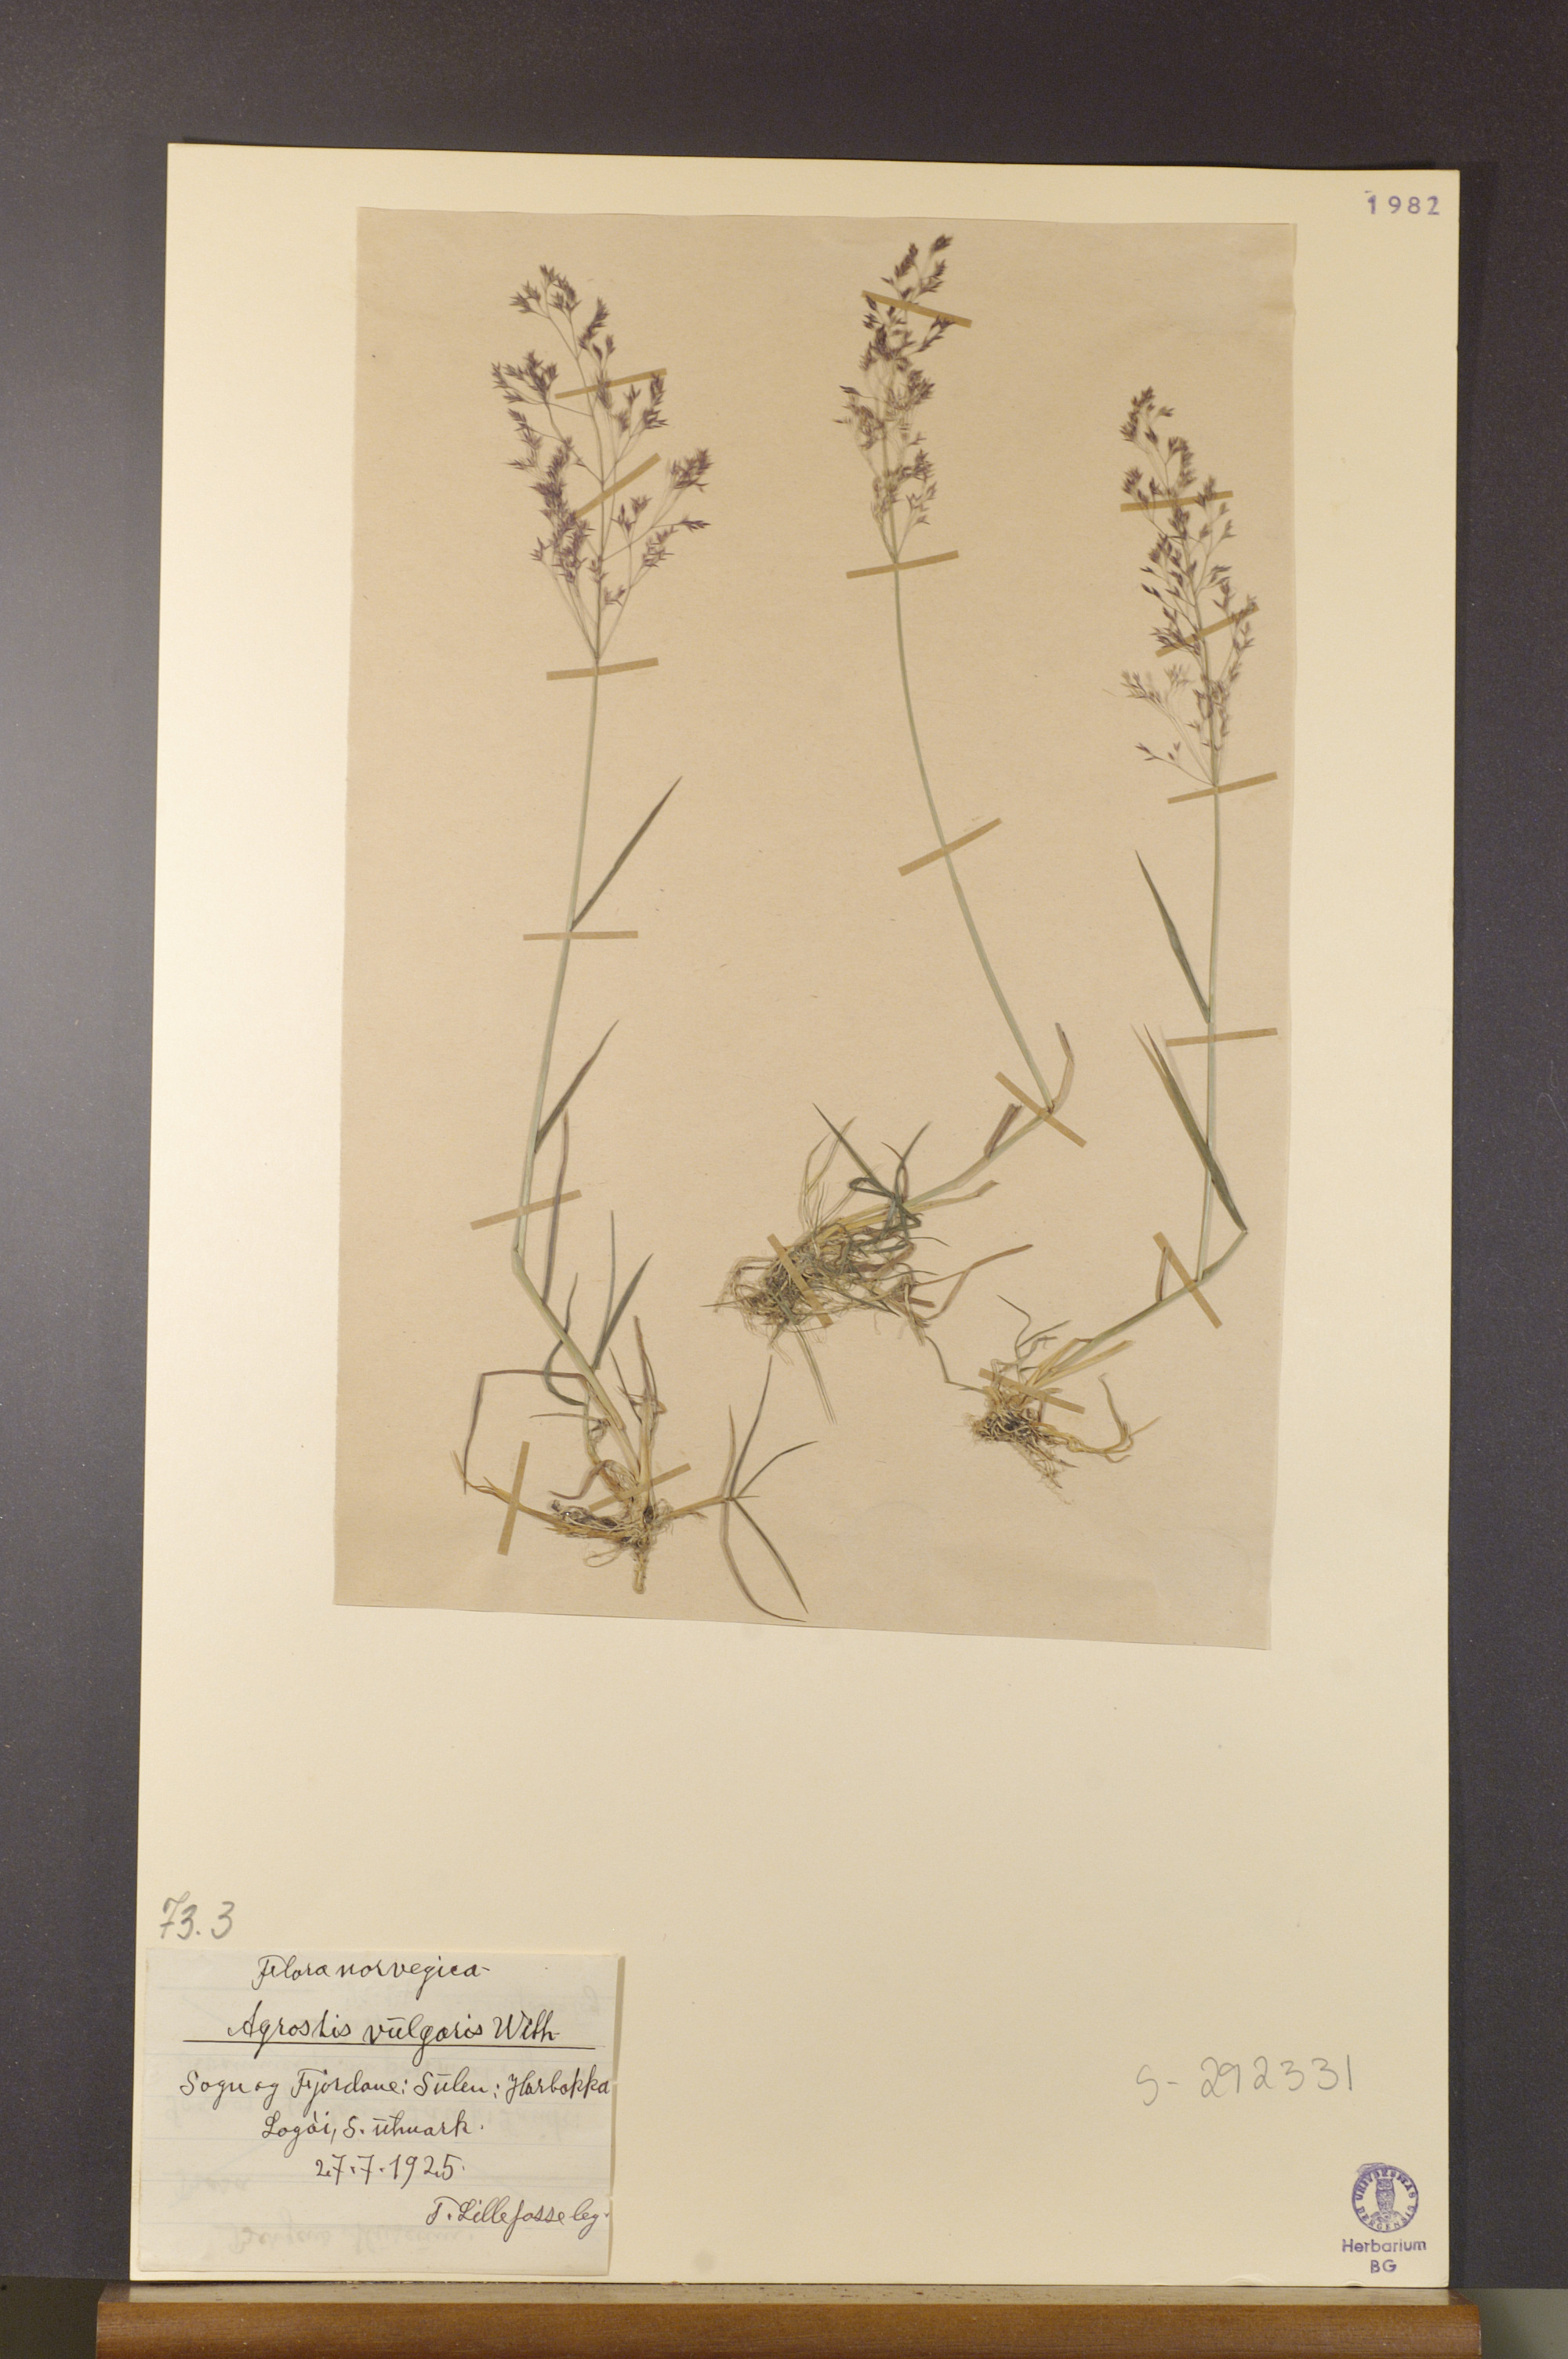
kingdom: Plantae
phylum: Tracheophyta
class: Liliopsida
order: Poales
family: Poaceae
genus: Agrostis
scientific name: Agrostis capillaris
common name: Colonial bentgrass
